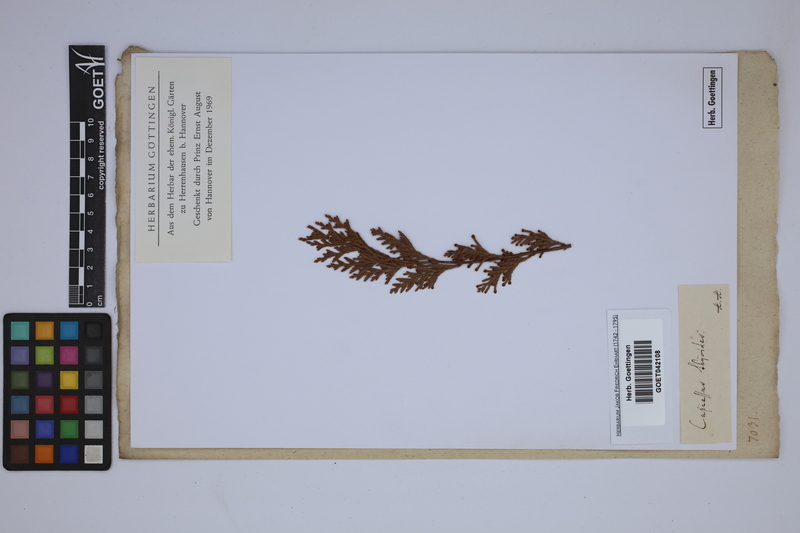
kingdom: Plantae
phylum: Tracheophyta
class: Pinopsida
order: Pinales
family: Cupressaceae
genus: Chamaecyparis
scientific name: Chamaecyparis thyoides
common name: Atlantic white cedar
